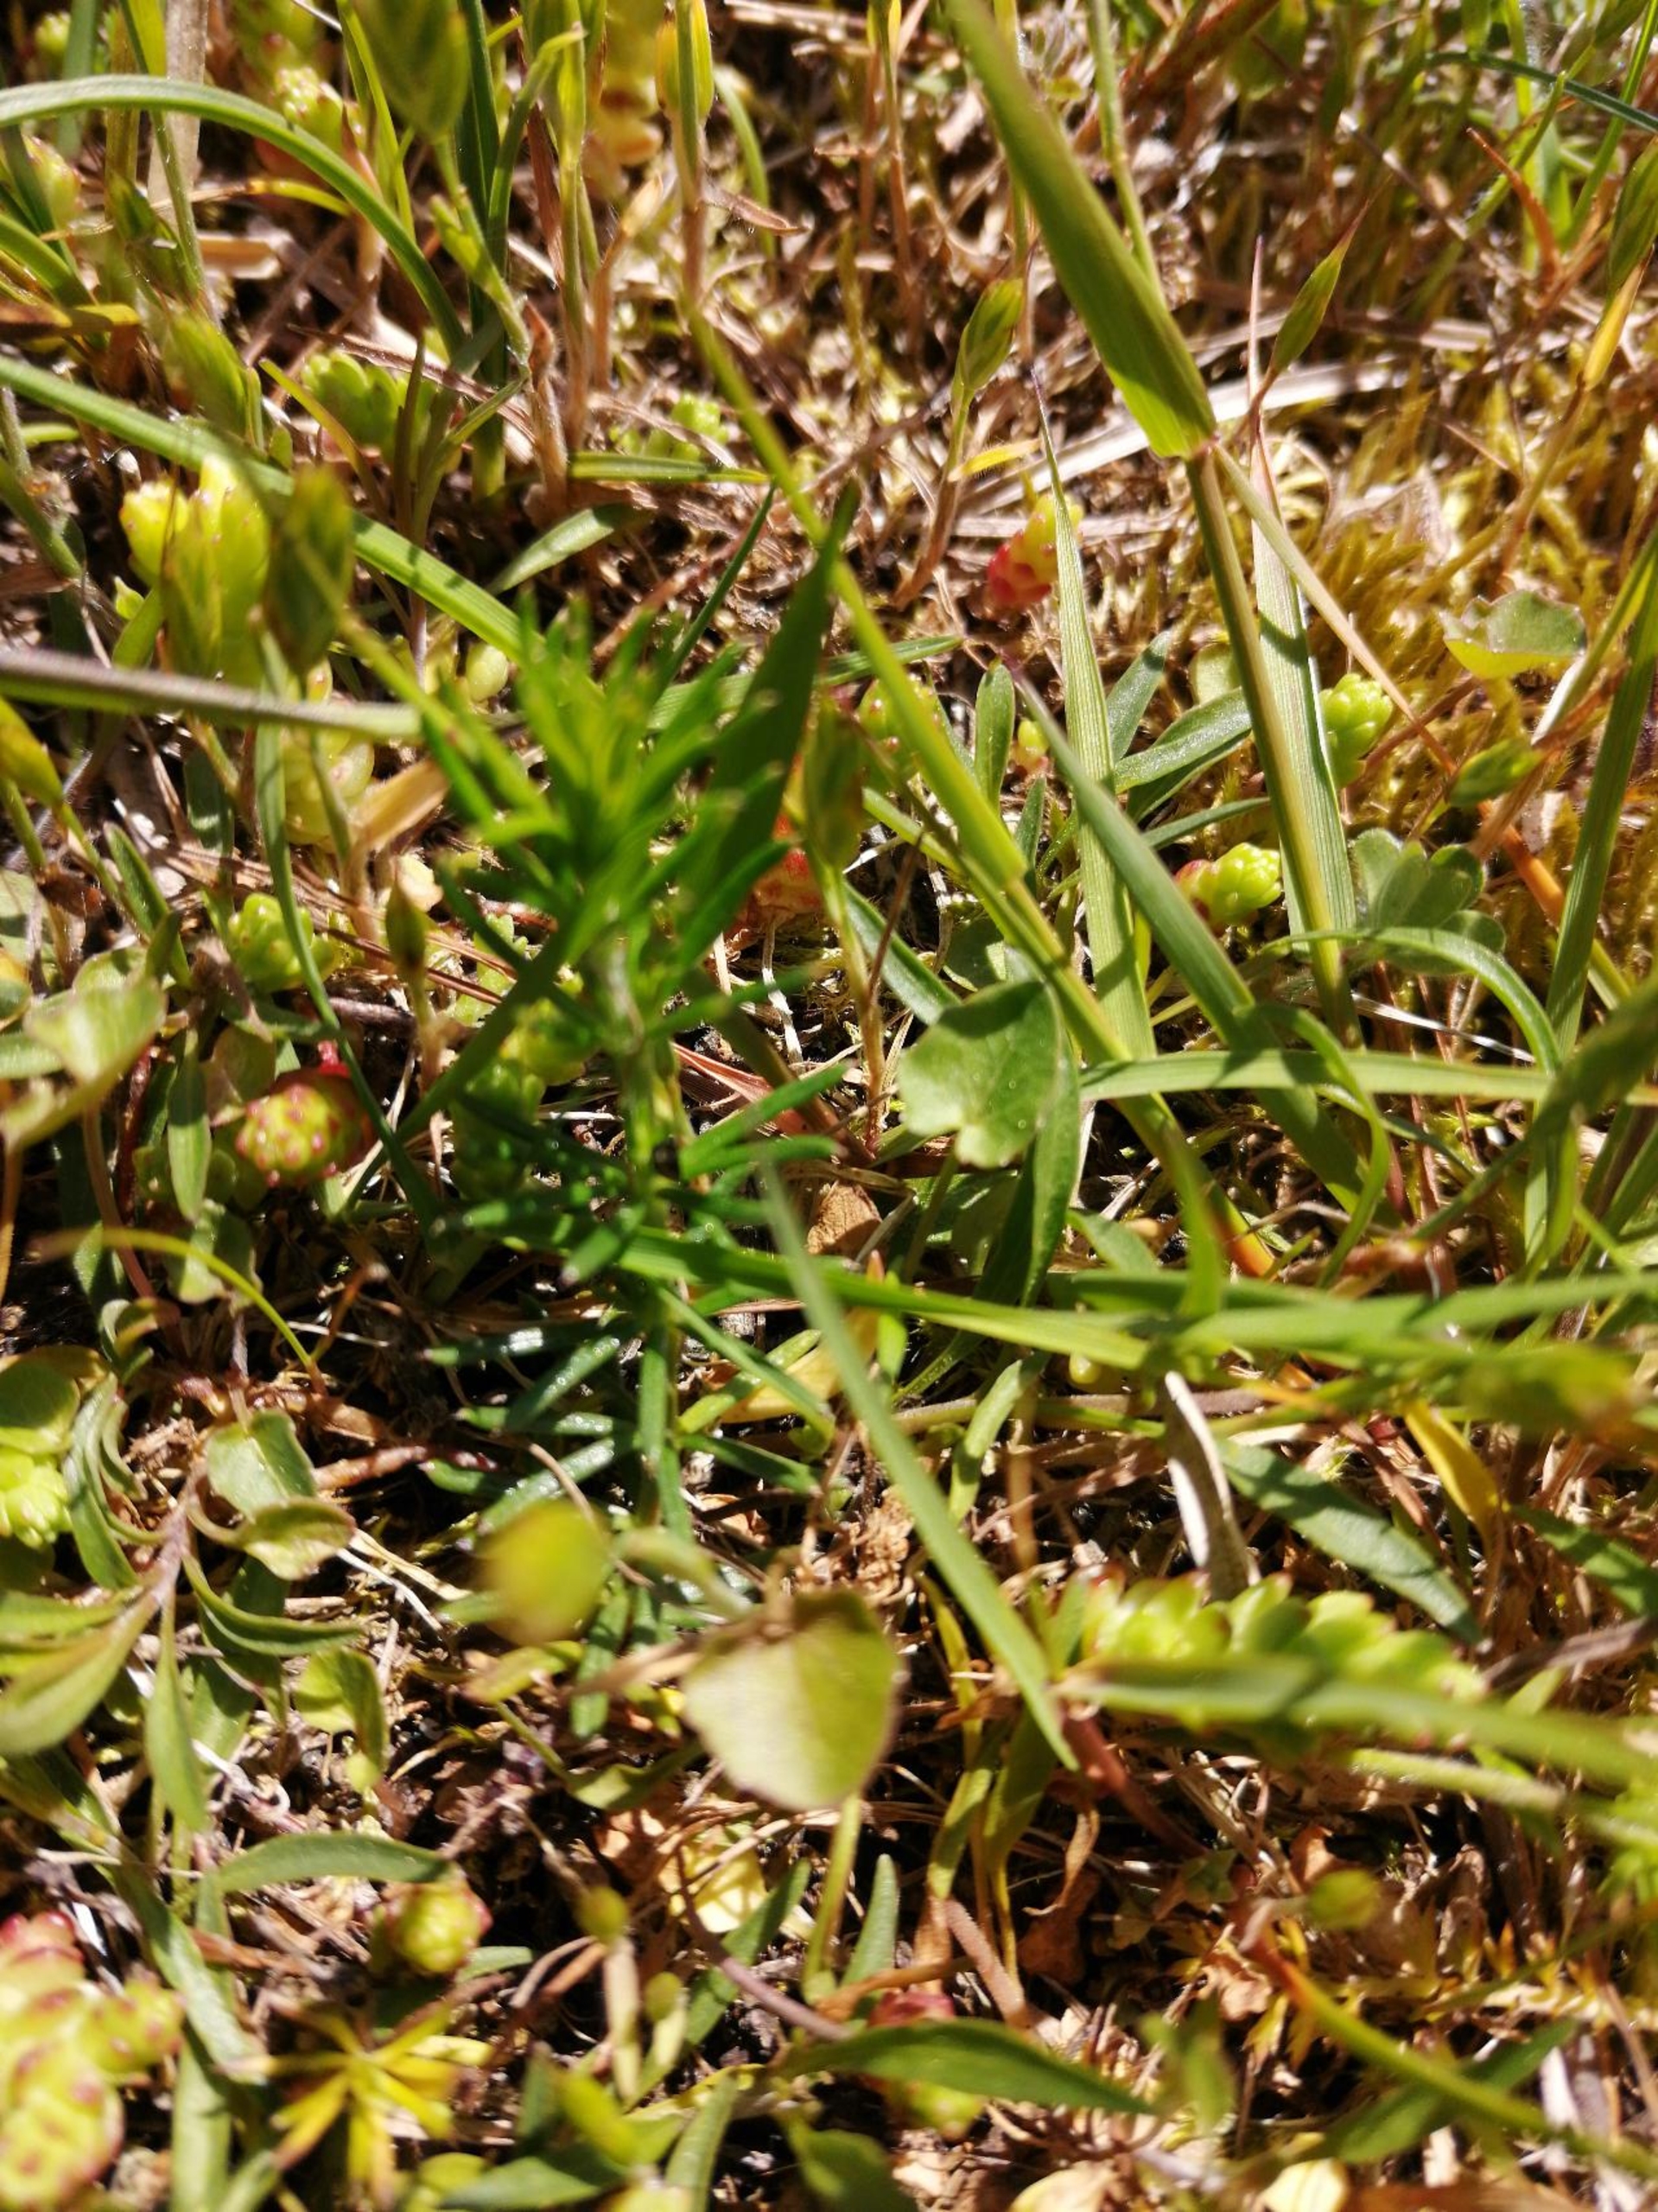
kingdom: Plantae
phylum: Tracheophyta
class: Magnoliopsida
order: Asterales
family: Campanulaceae
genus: Campanula
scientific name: Campanula rotundifolia
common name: Liden klokke
